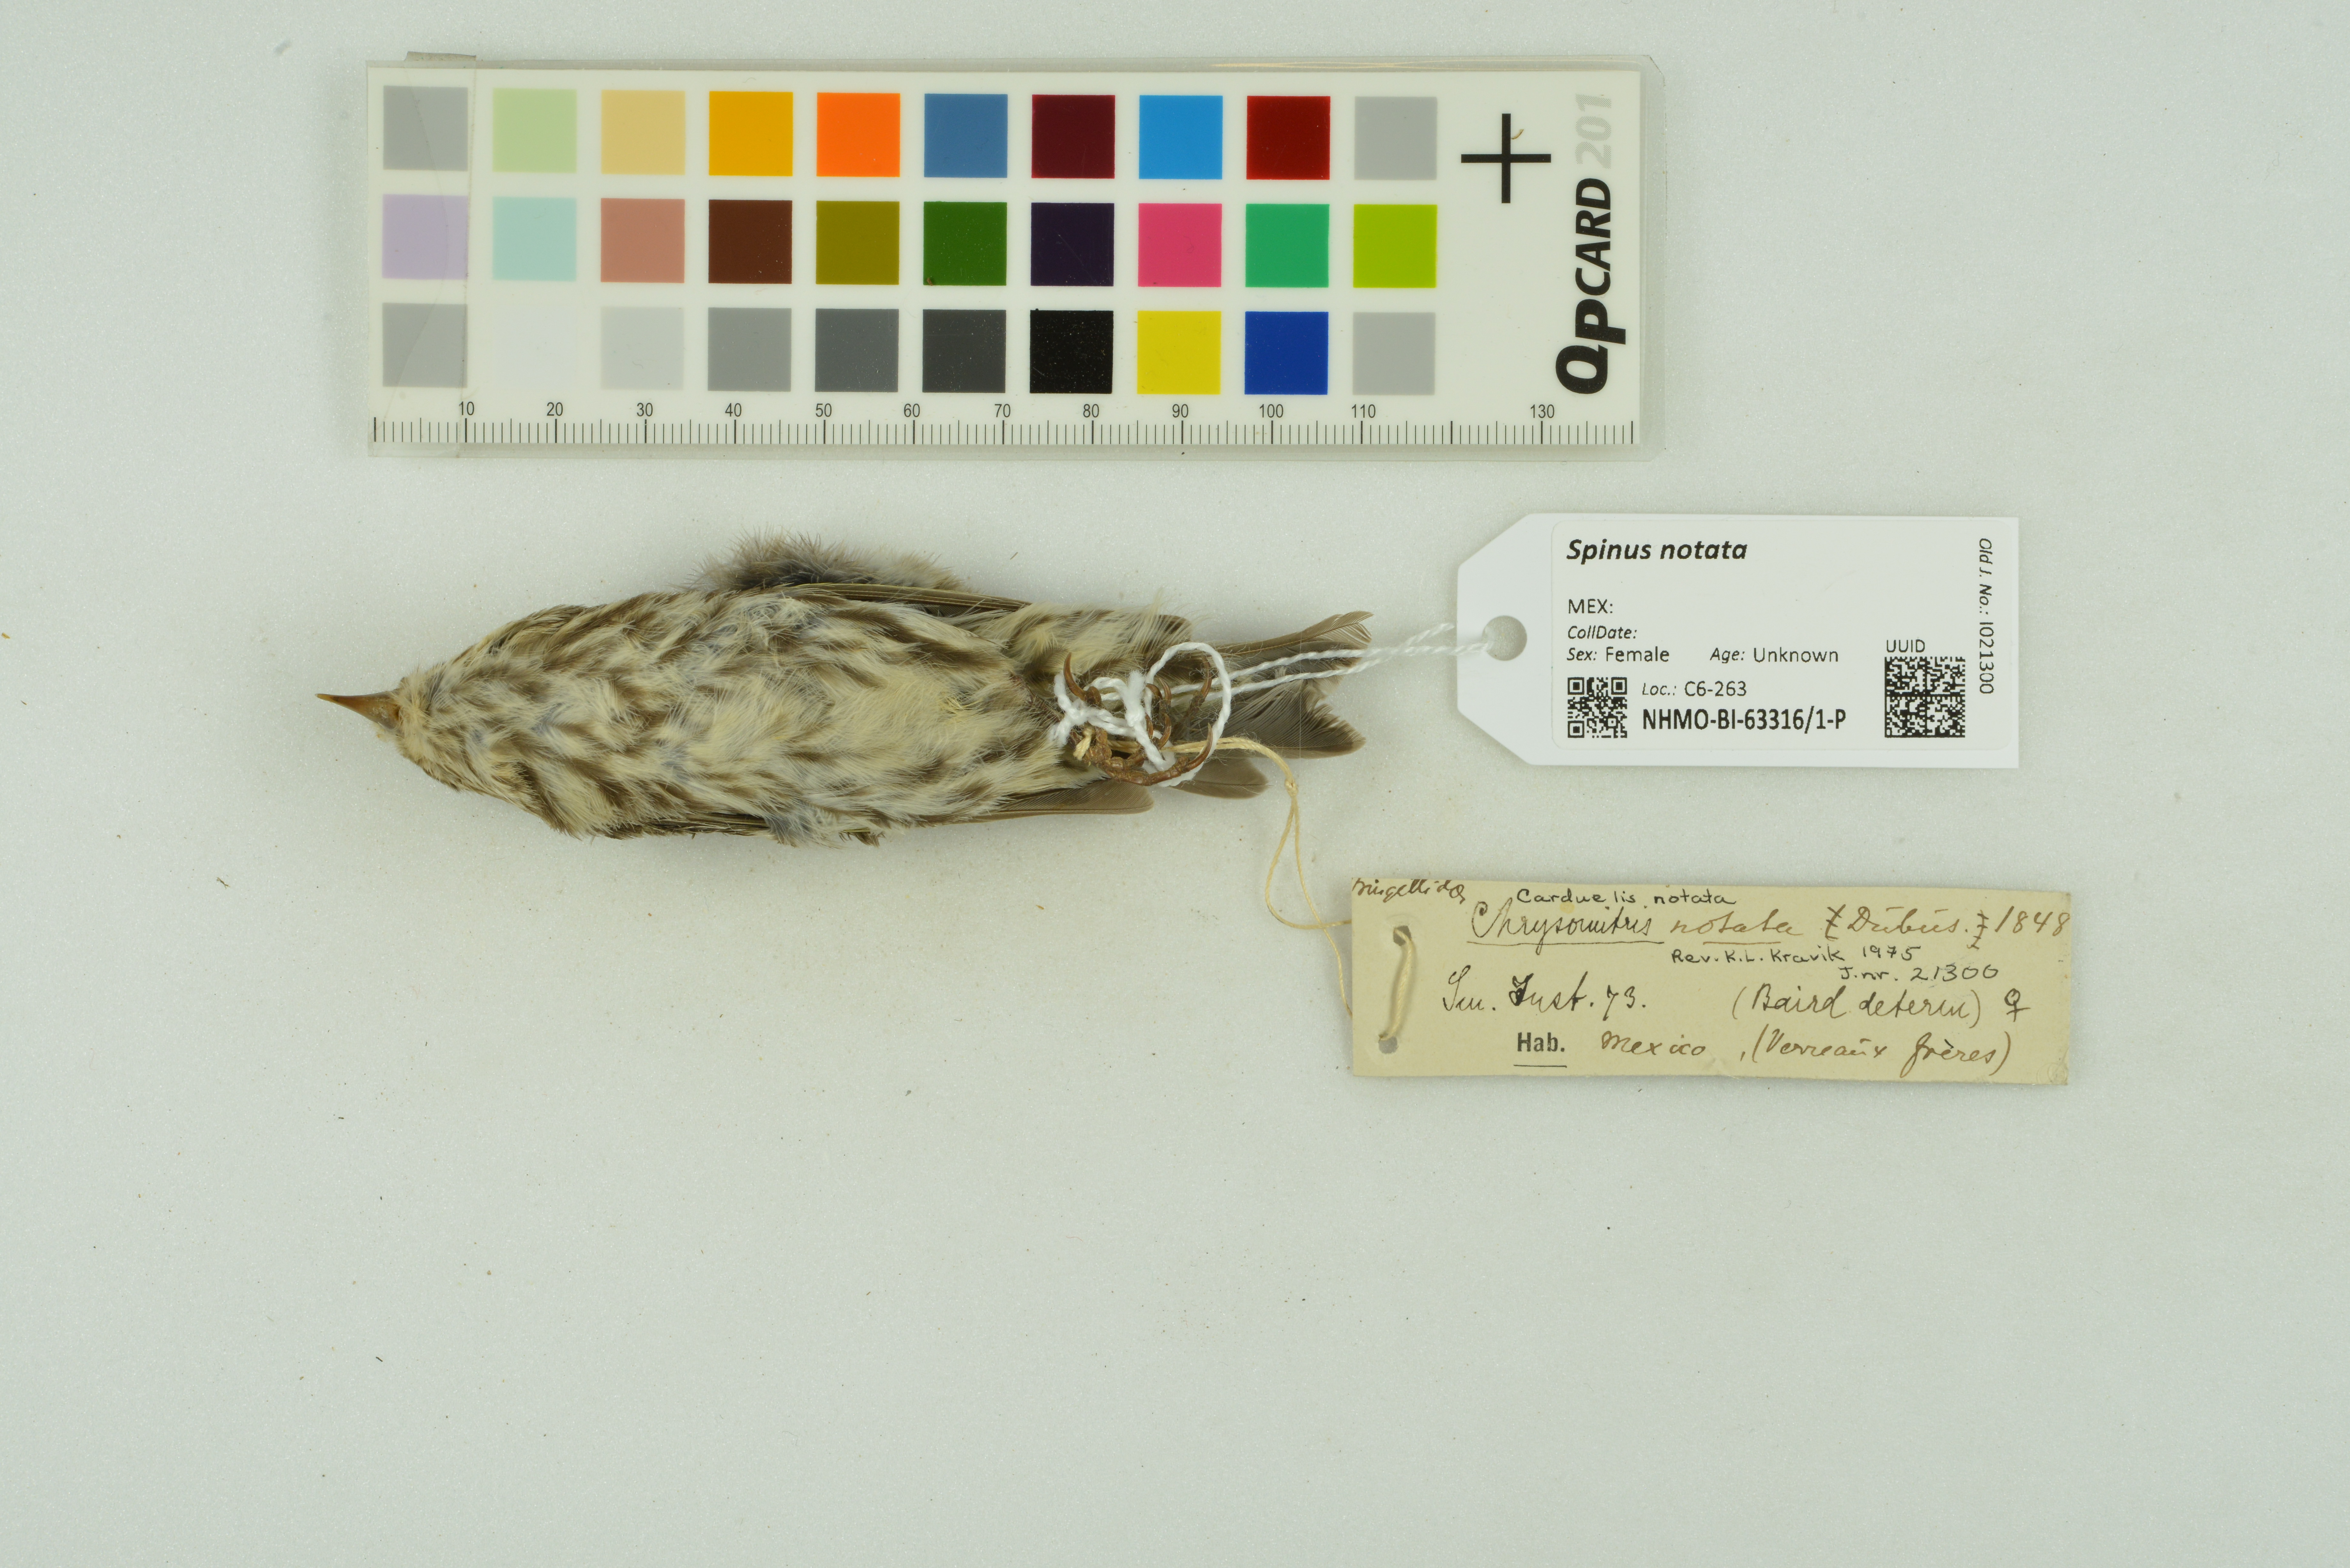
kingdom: Animalia
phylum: Chordata
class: Aves
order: Passeriformes
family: Fringillidae
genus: Spinus
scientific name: Spinus notatus
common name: Black-headed siskin
